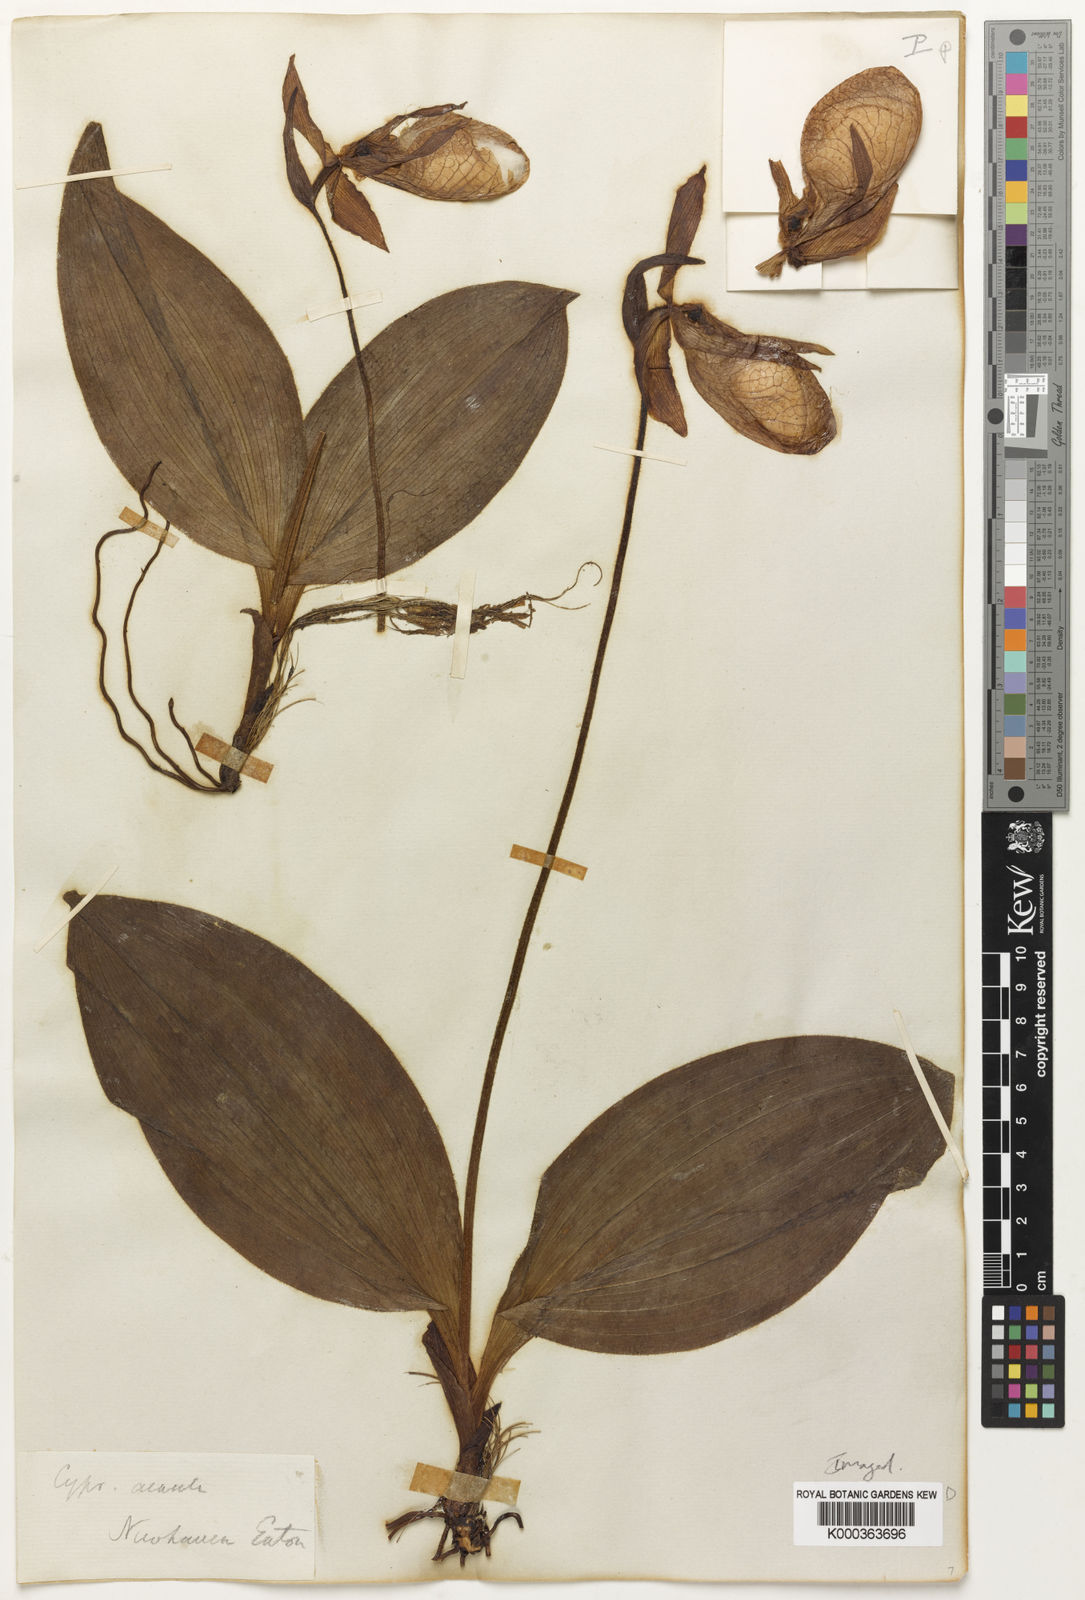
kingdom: Plantae
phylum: Tracheophyta
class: Liliopsida
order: Asparagales
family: Orchidaceae
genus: Cypripedium
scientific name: Cypripedium acaule
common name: Pink lady's-slipper
